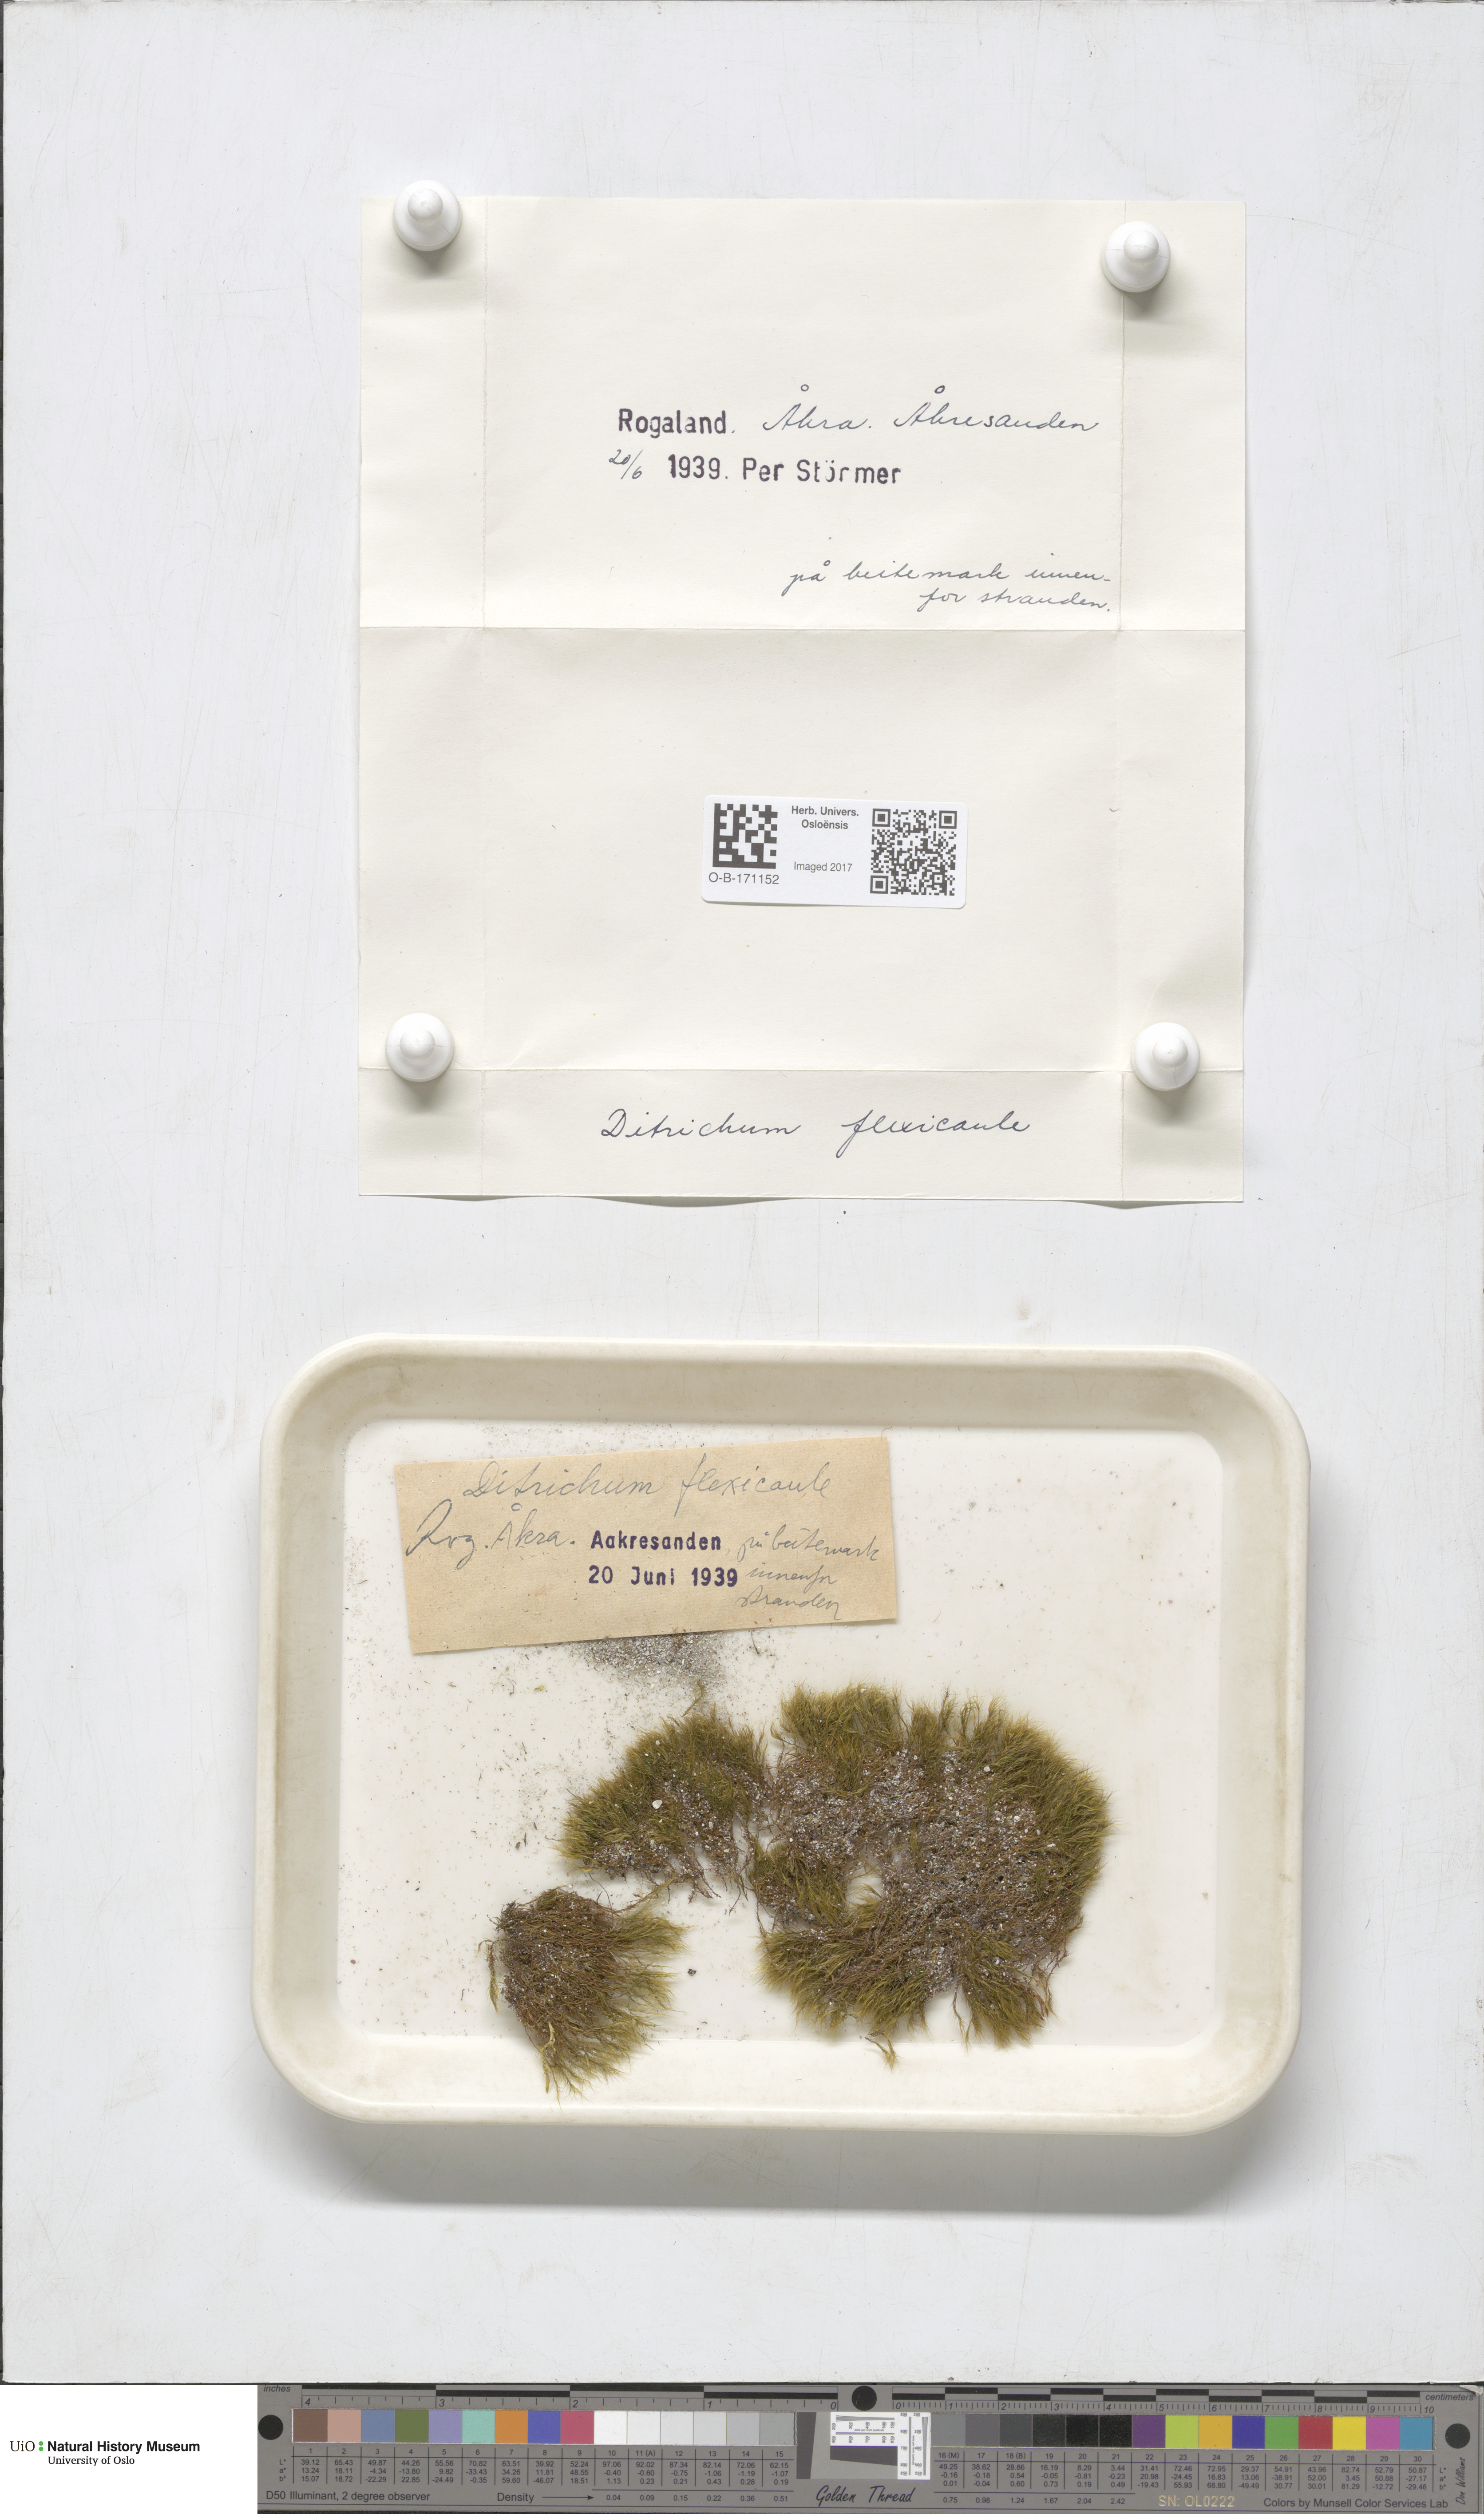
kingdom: Plantae
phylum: Bryophyta
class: Bryopsida
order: Scouleriales
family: Flexitrichaceae
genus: Flexitrichum
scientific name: Flexitrichum flexicaule
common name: Bendy ditrichum
